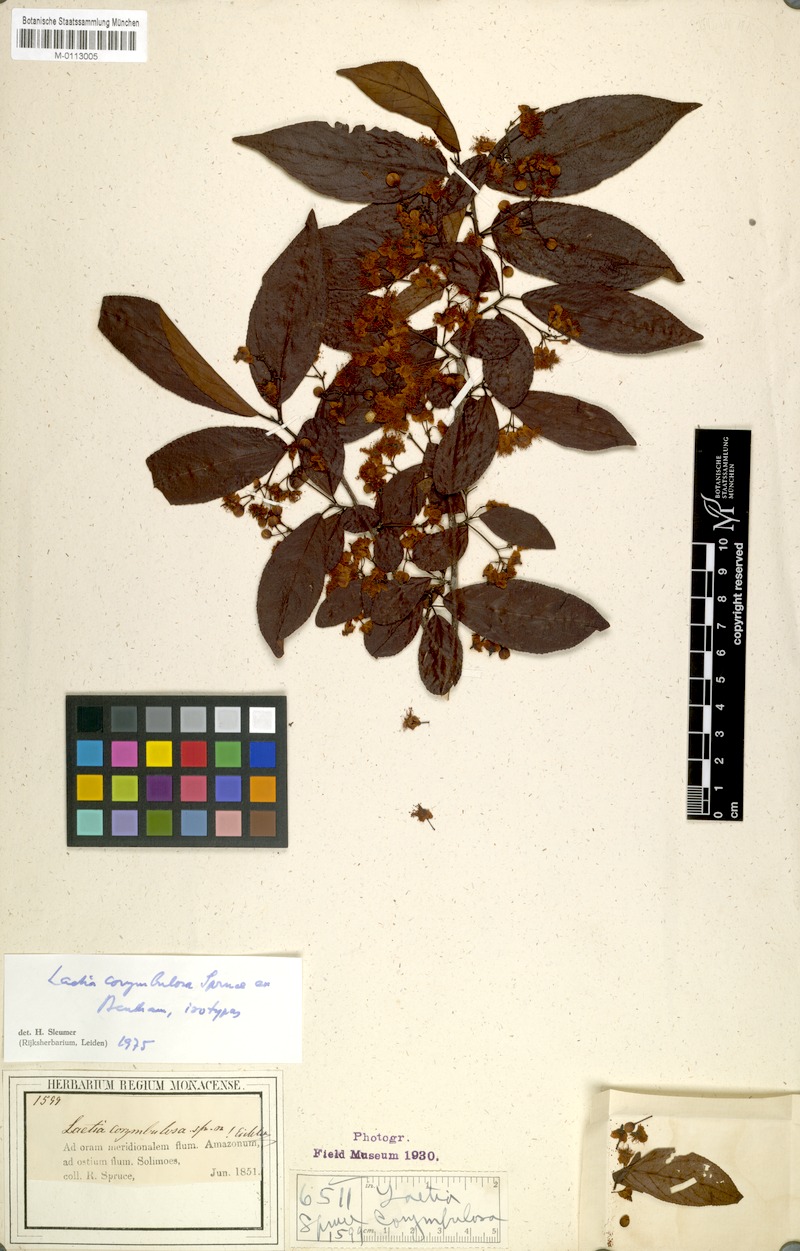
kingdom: Plantae
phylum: Tracheophyta
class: Magnoliopsida
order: Malpighiales
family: Salicaceae
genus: Casearia
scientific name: Casearia corymbulosa
